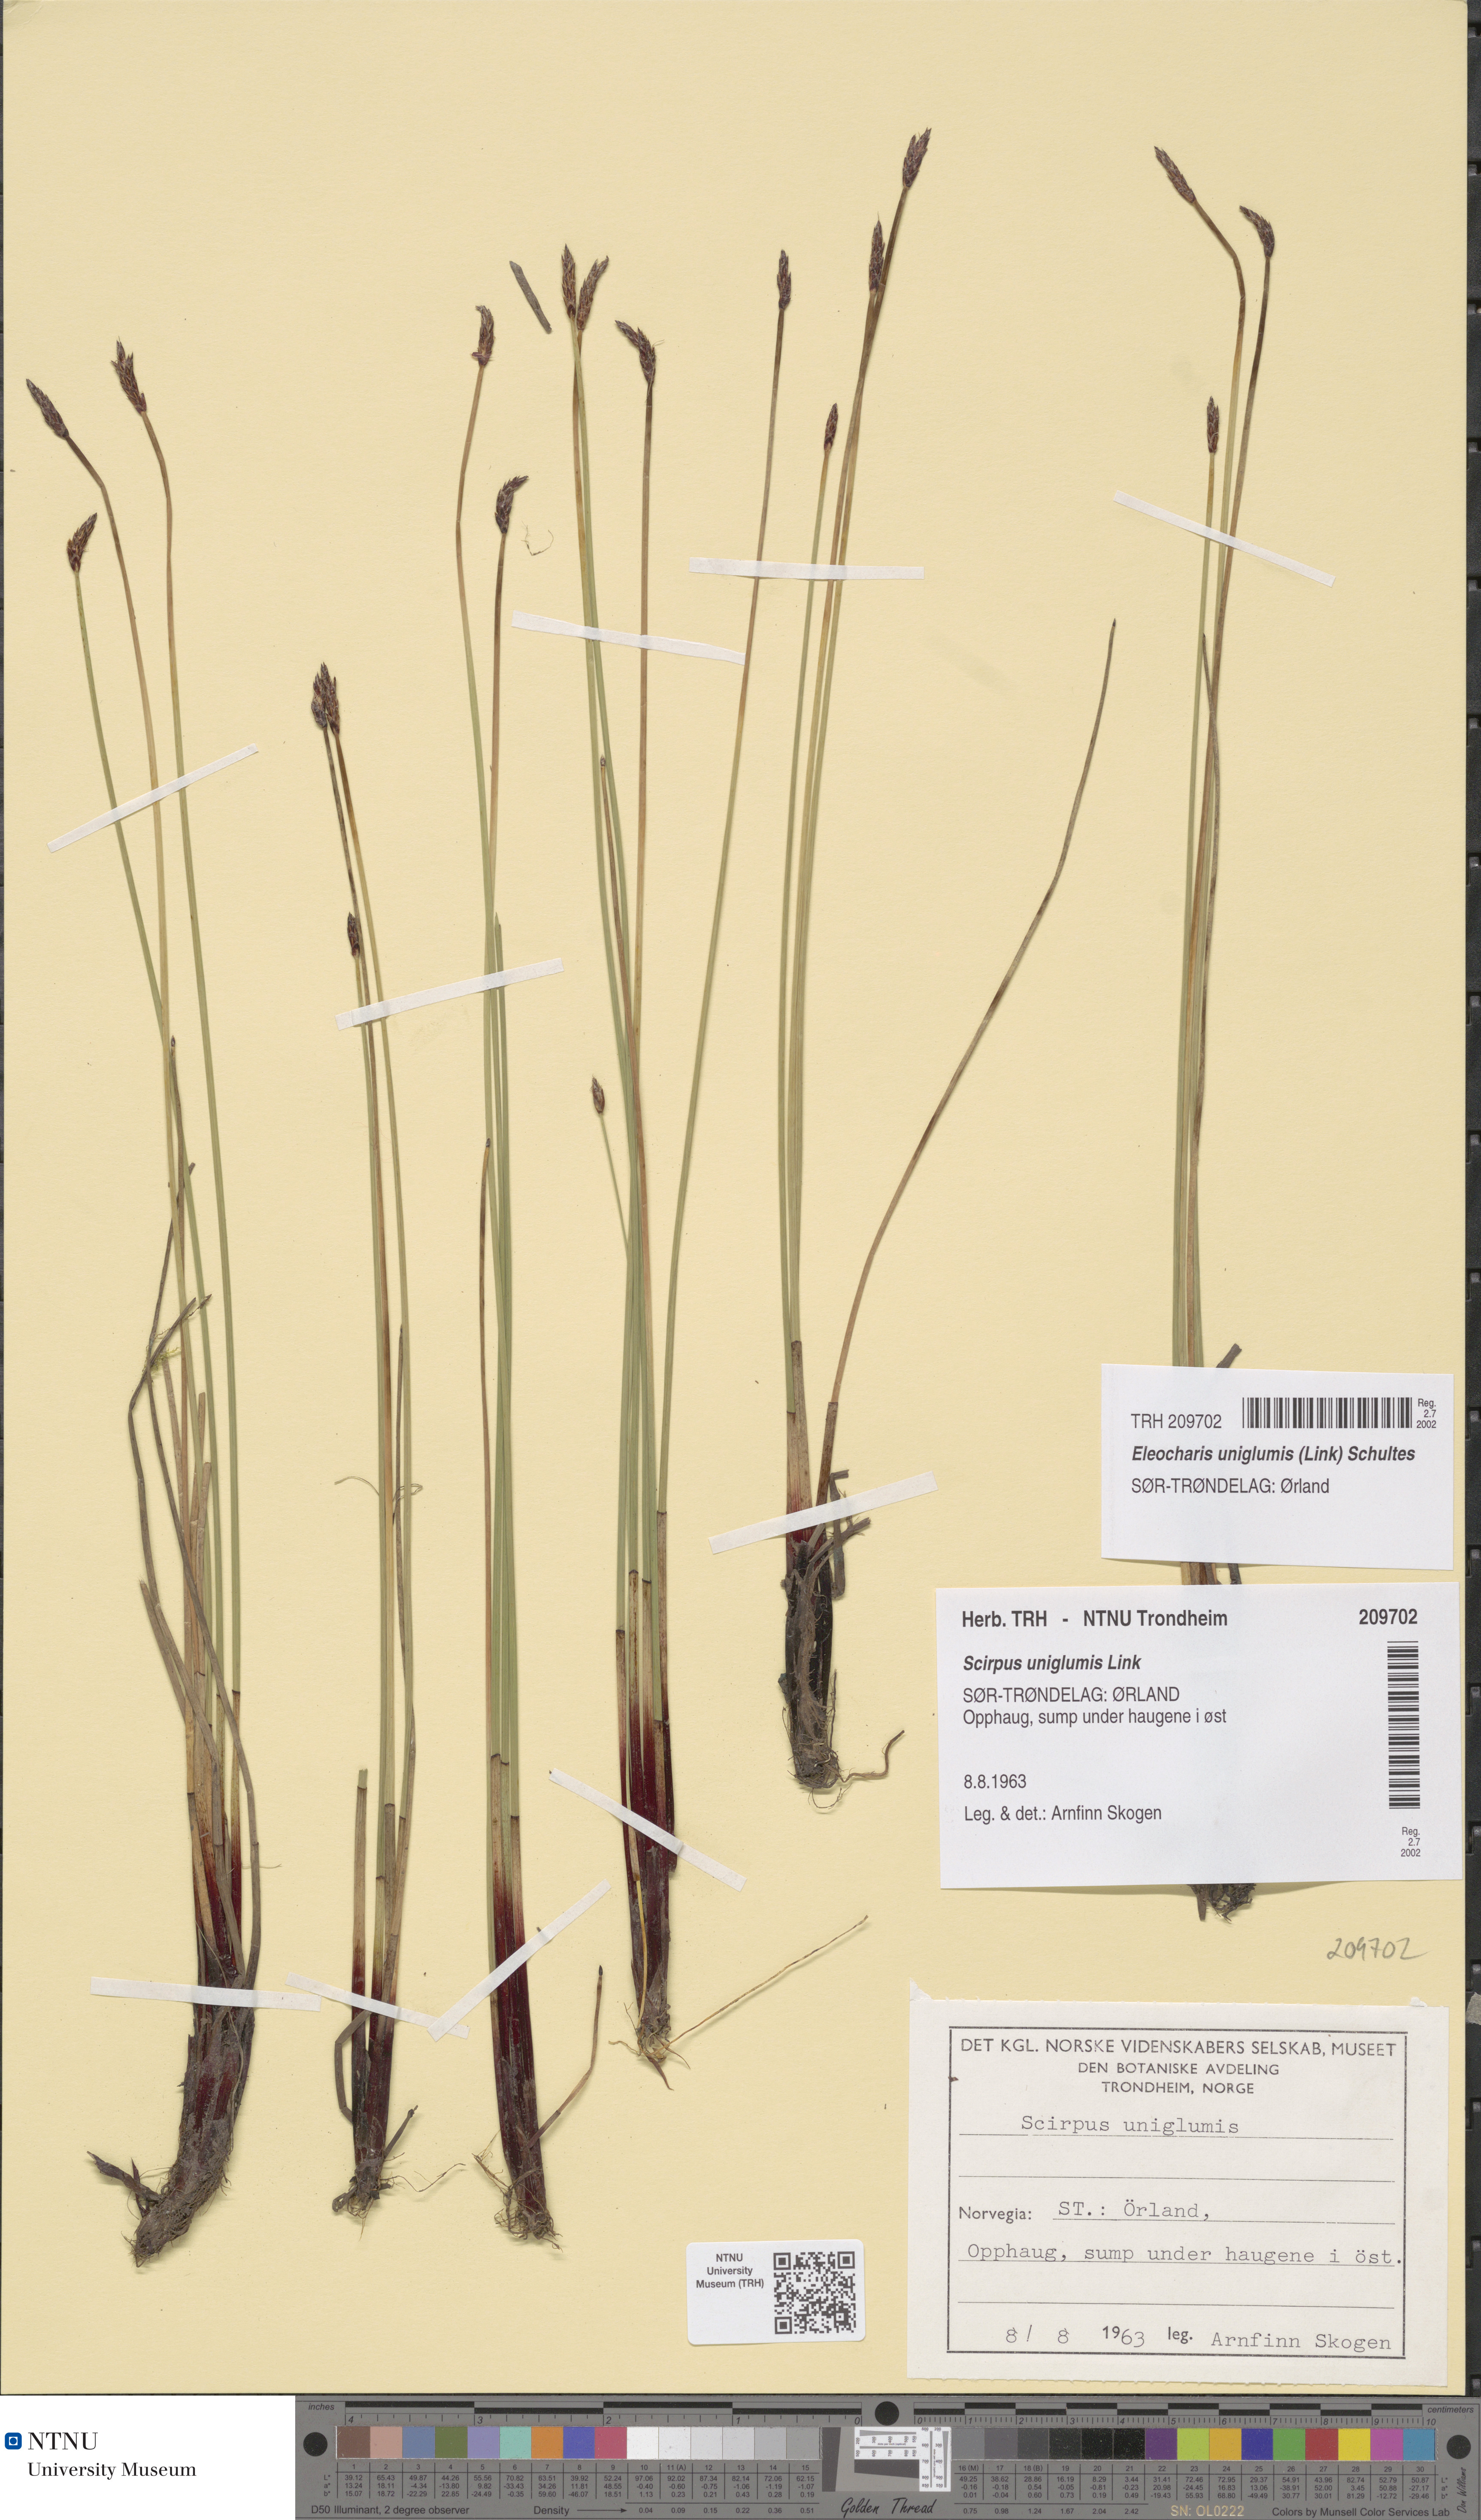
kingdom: Plantae
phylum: Tracheophyta
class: Liliopsida
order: Poales
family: Cyperaceae
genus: Eleocharis
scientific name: Eleocharis uniglumis
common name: Slender spike-rush
